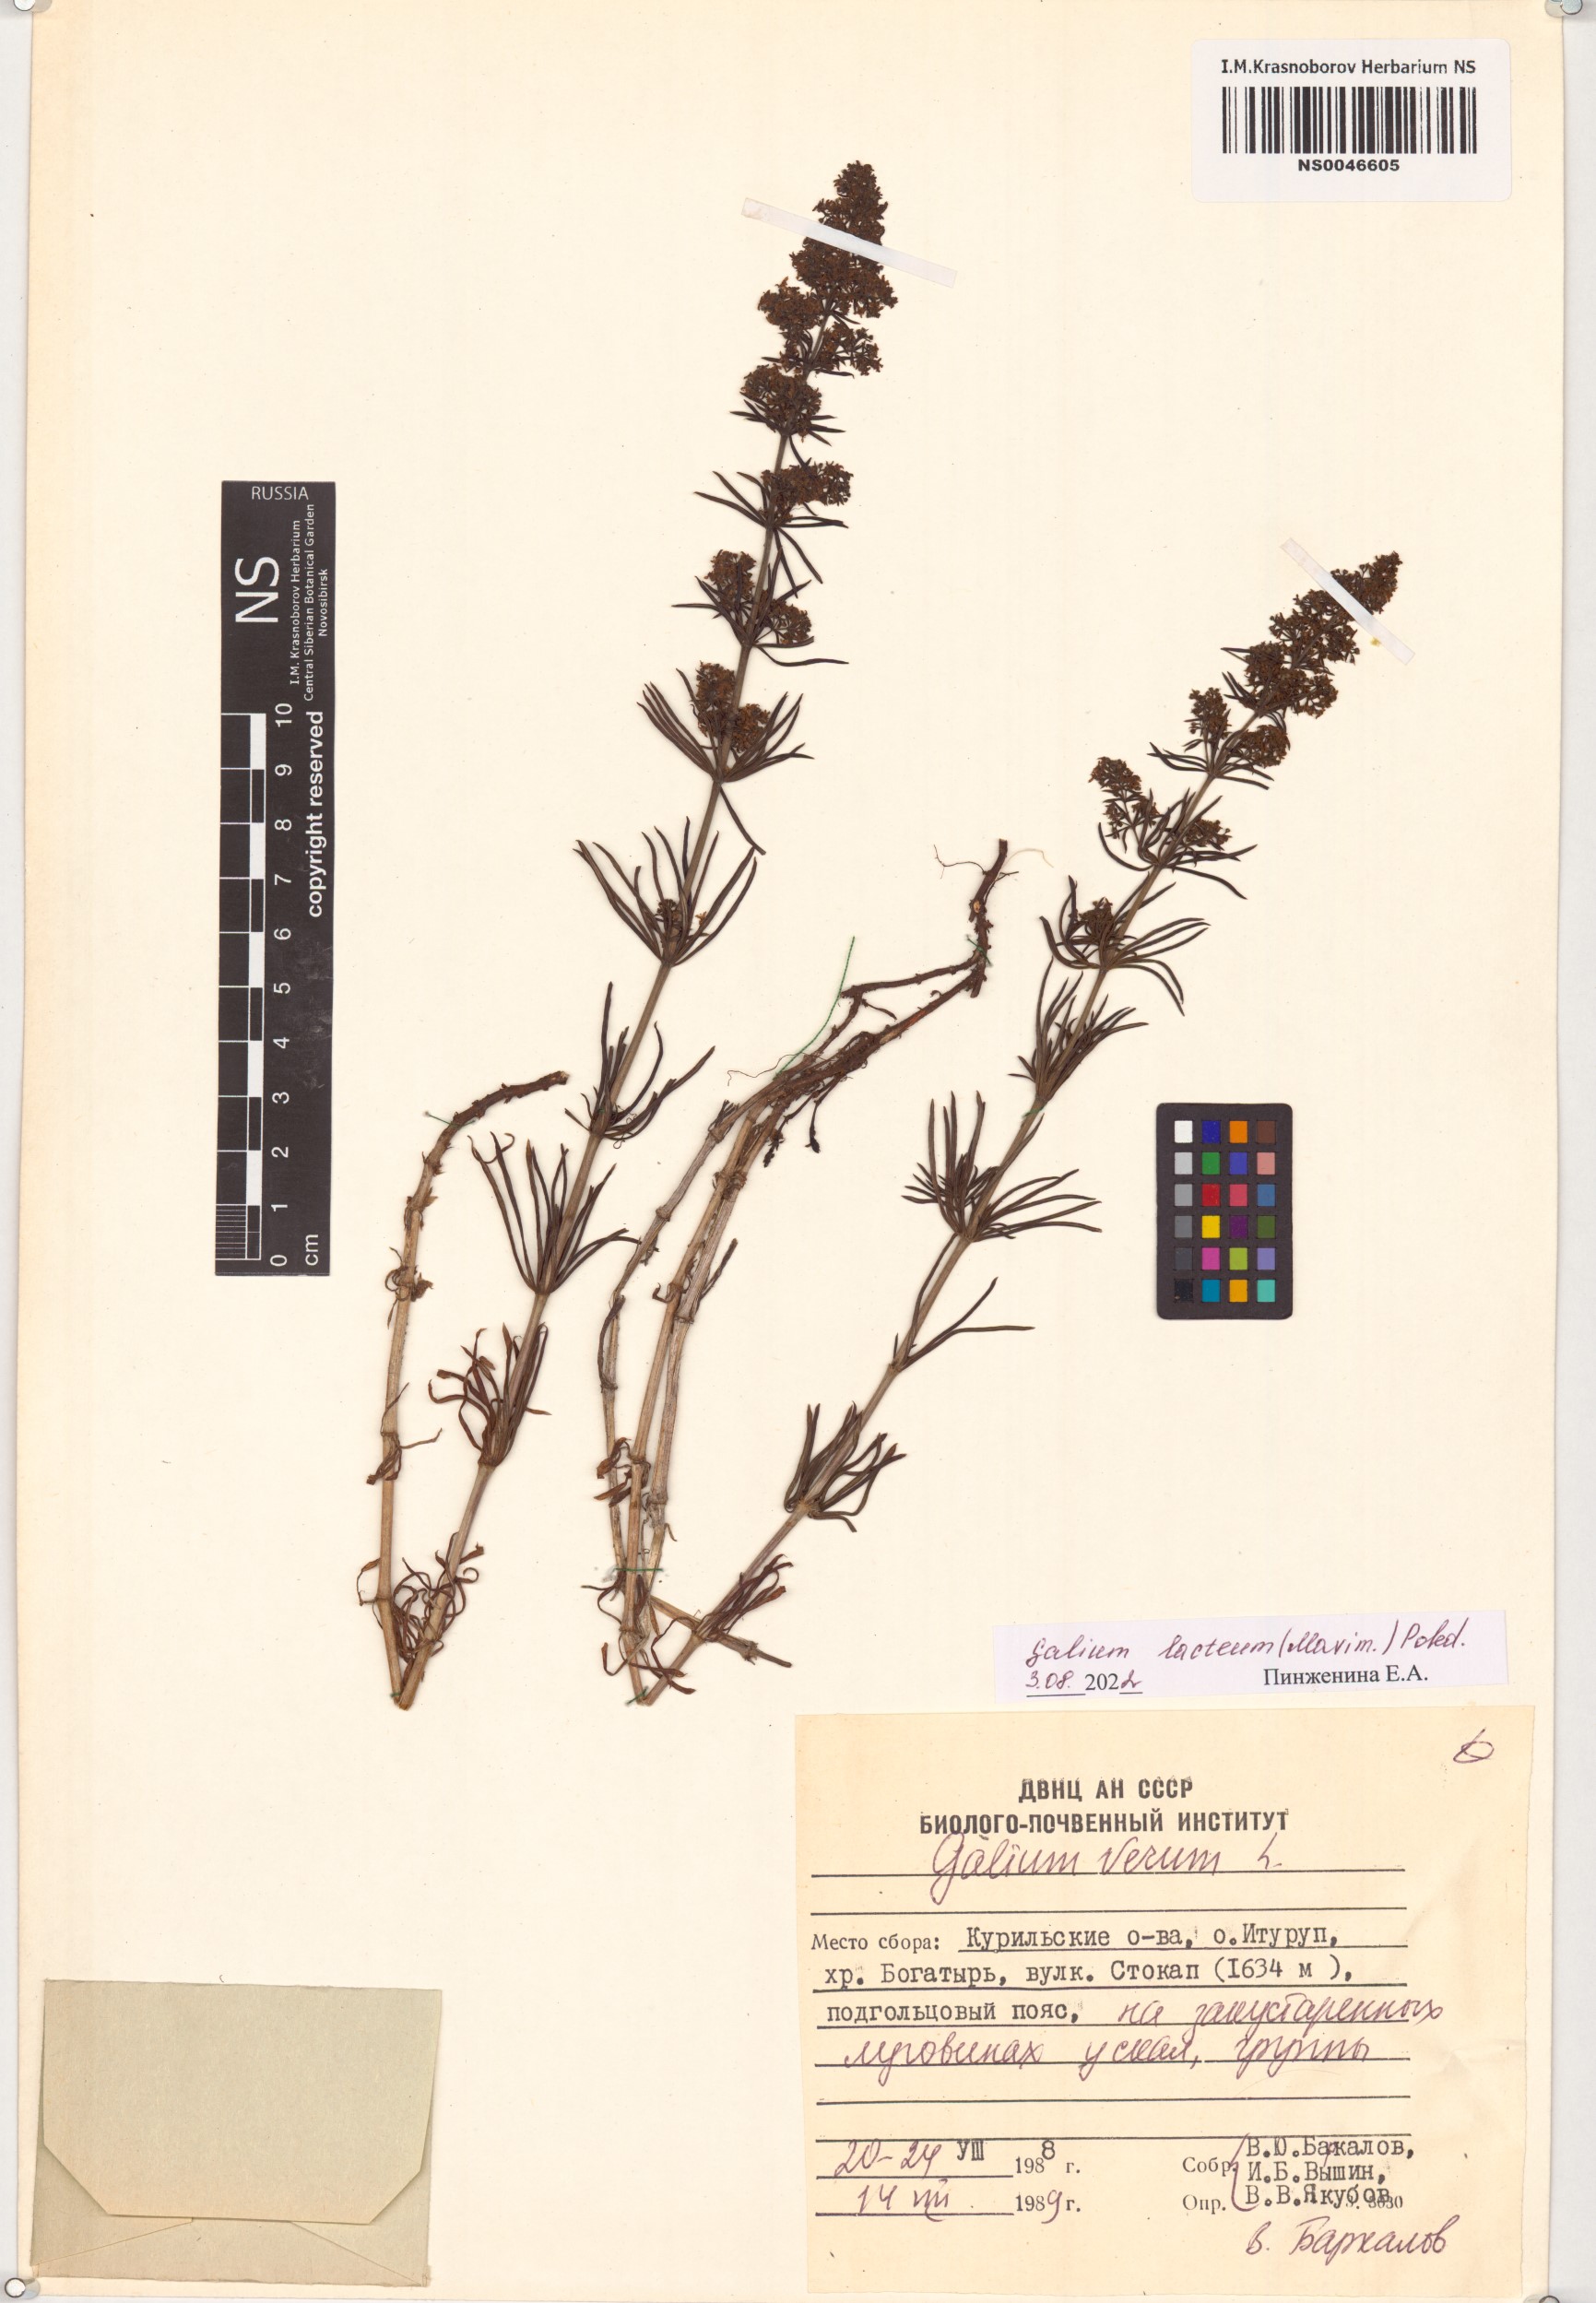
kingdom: Plantae
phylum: Tracheophyta
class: Magnoliopsida
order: Gentianales
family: Rubiaceae
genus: Galium
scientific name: Galium verum
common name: Lady's bedstraw
